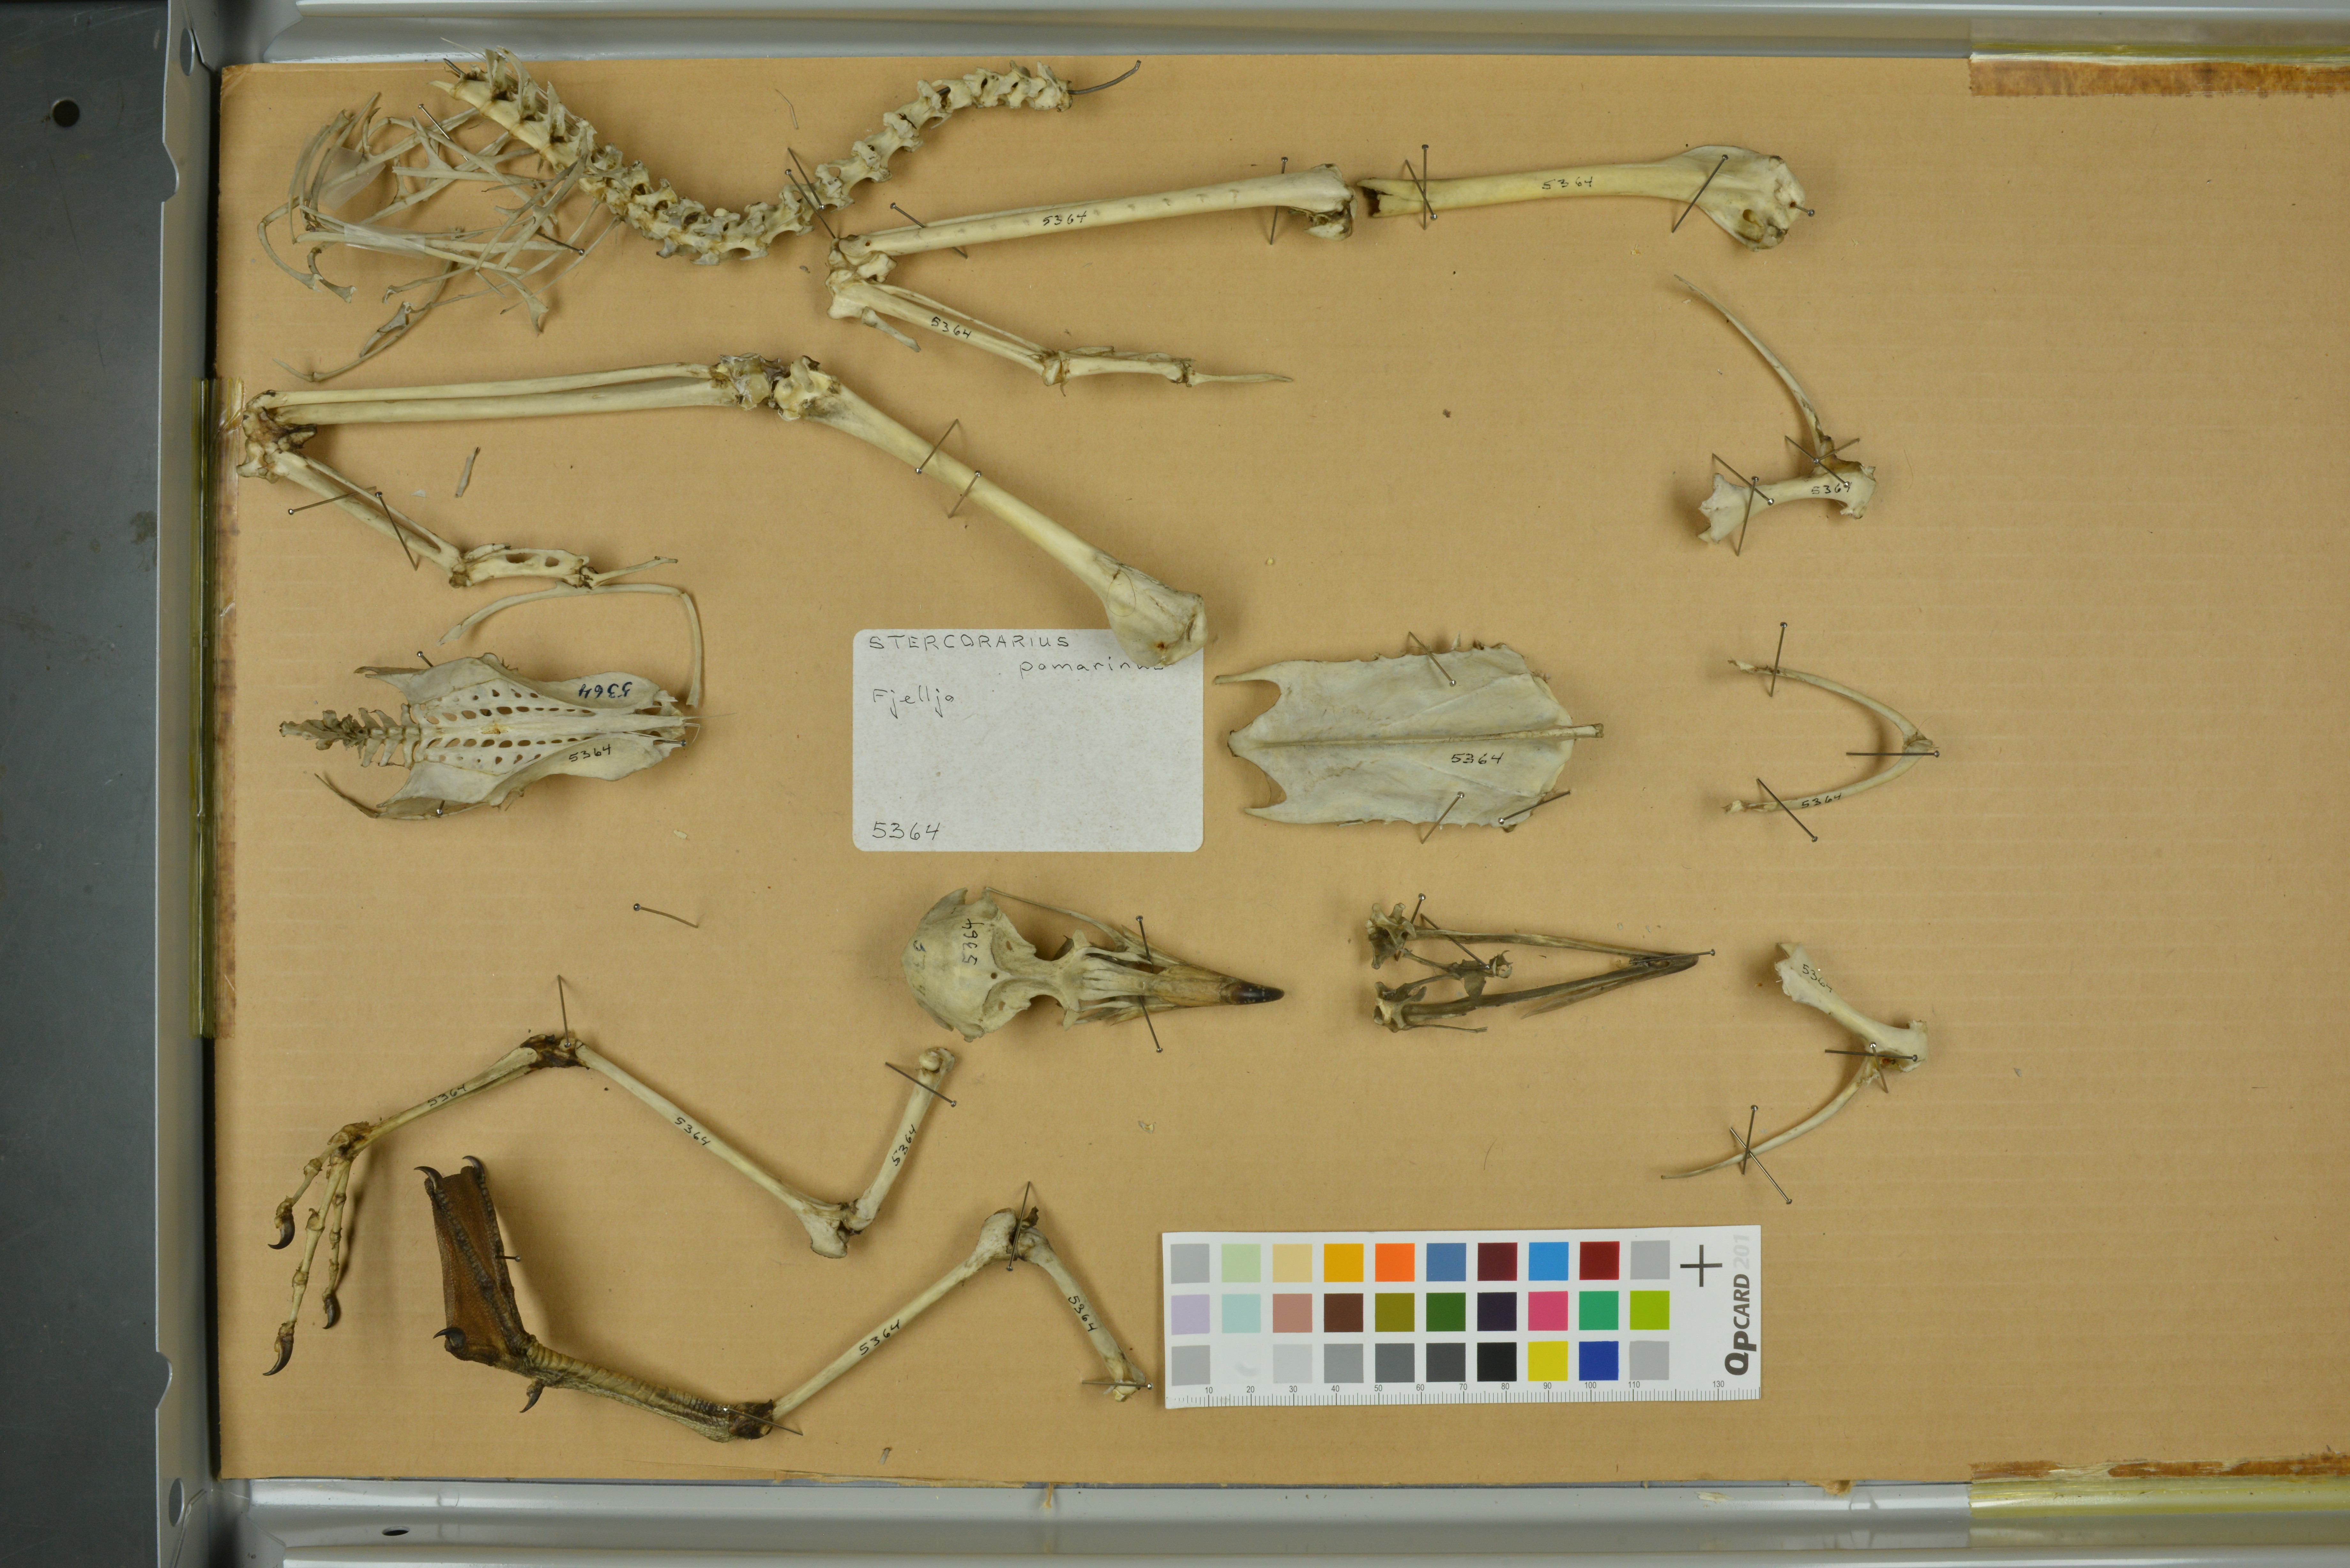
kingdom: Animalia
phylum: Chordata
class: Aves
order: Charadriiformes
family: Stercorariidae
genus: Stercorarius
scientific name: Stercorarius pomarinus
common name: Pomarine jaeger
